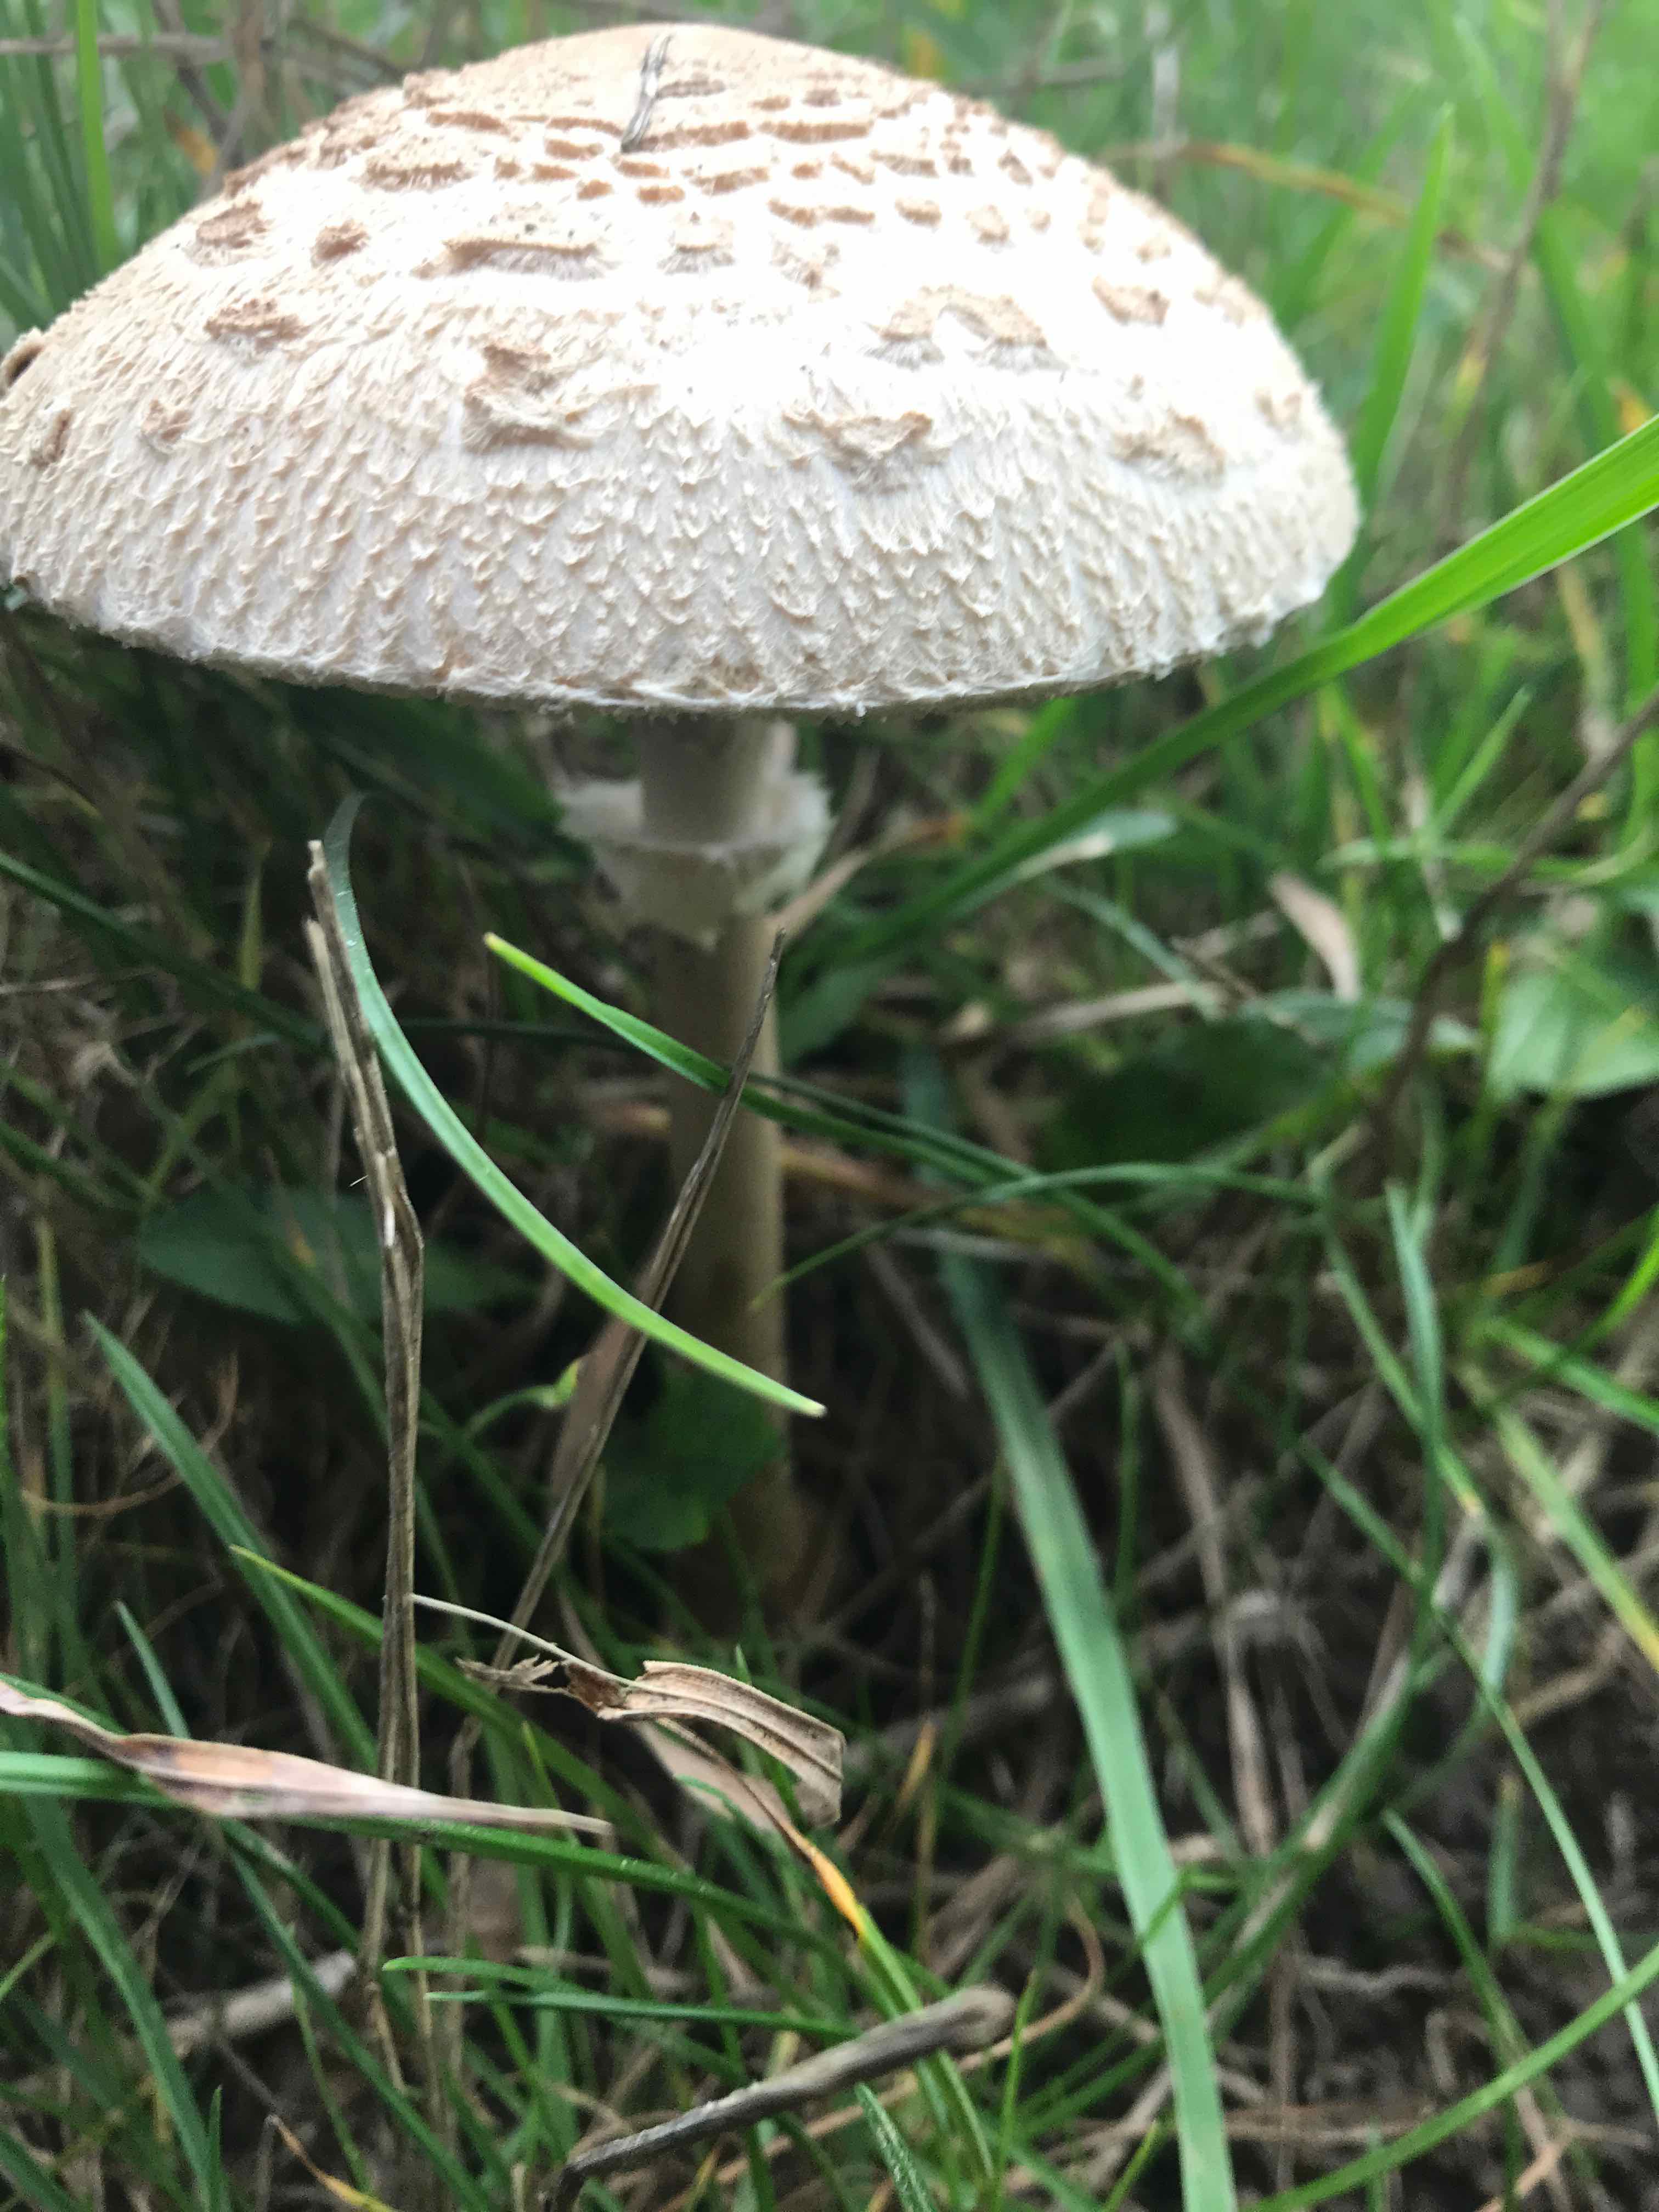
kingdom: Fungi
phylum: Basidiomycota
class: Agaricomycetes
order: Agaricales
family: Agaricaceae
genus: Macrolepiota
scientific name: Macrolepiota
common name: kæmpeparasolhat
